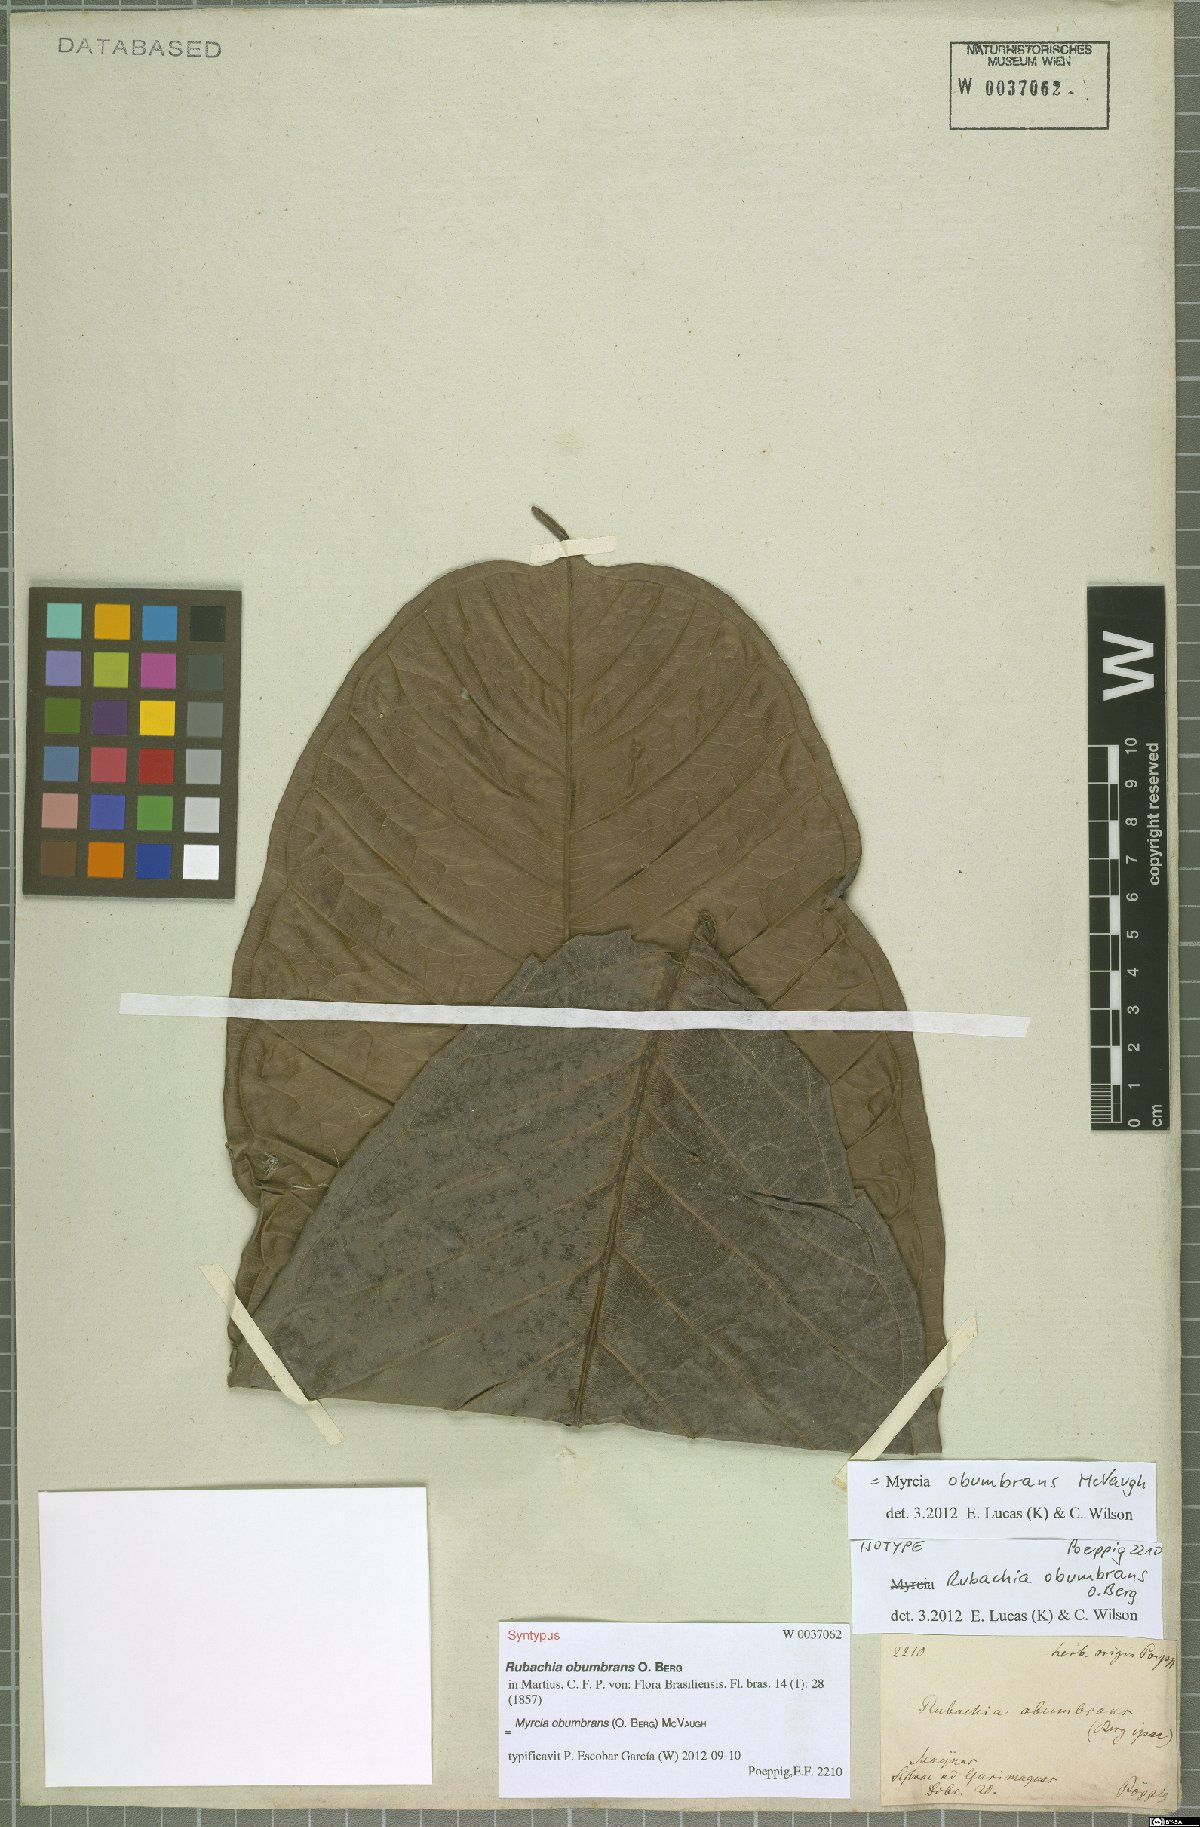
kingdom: Plantae
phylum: Tracheophyta
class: Magnoliopsida
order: Myrtales
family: Myrtaceae
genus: Myrcia
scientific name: Myrcia obumbrans
